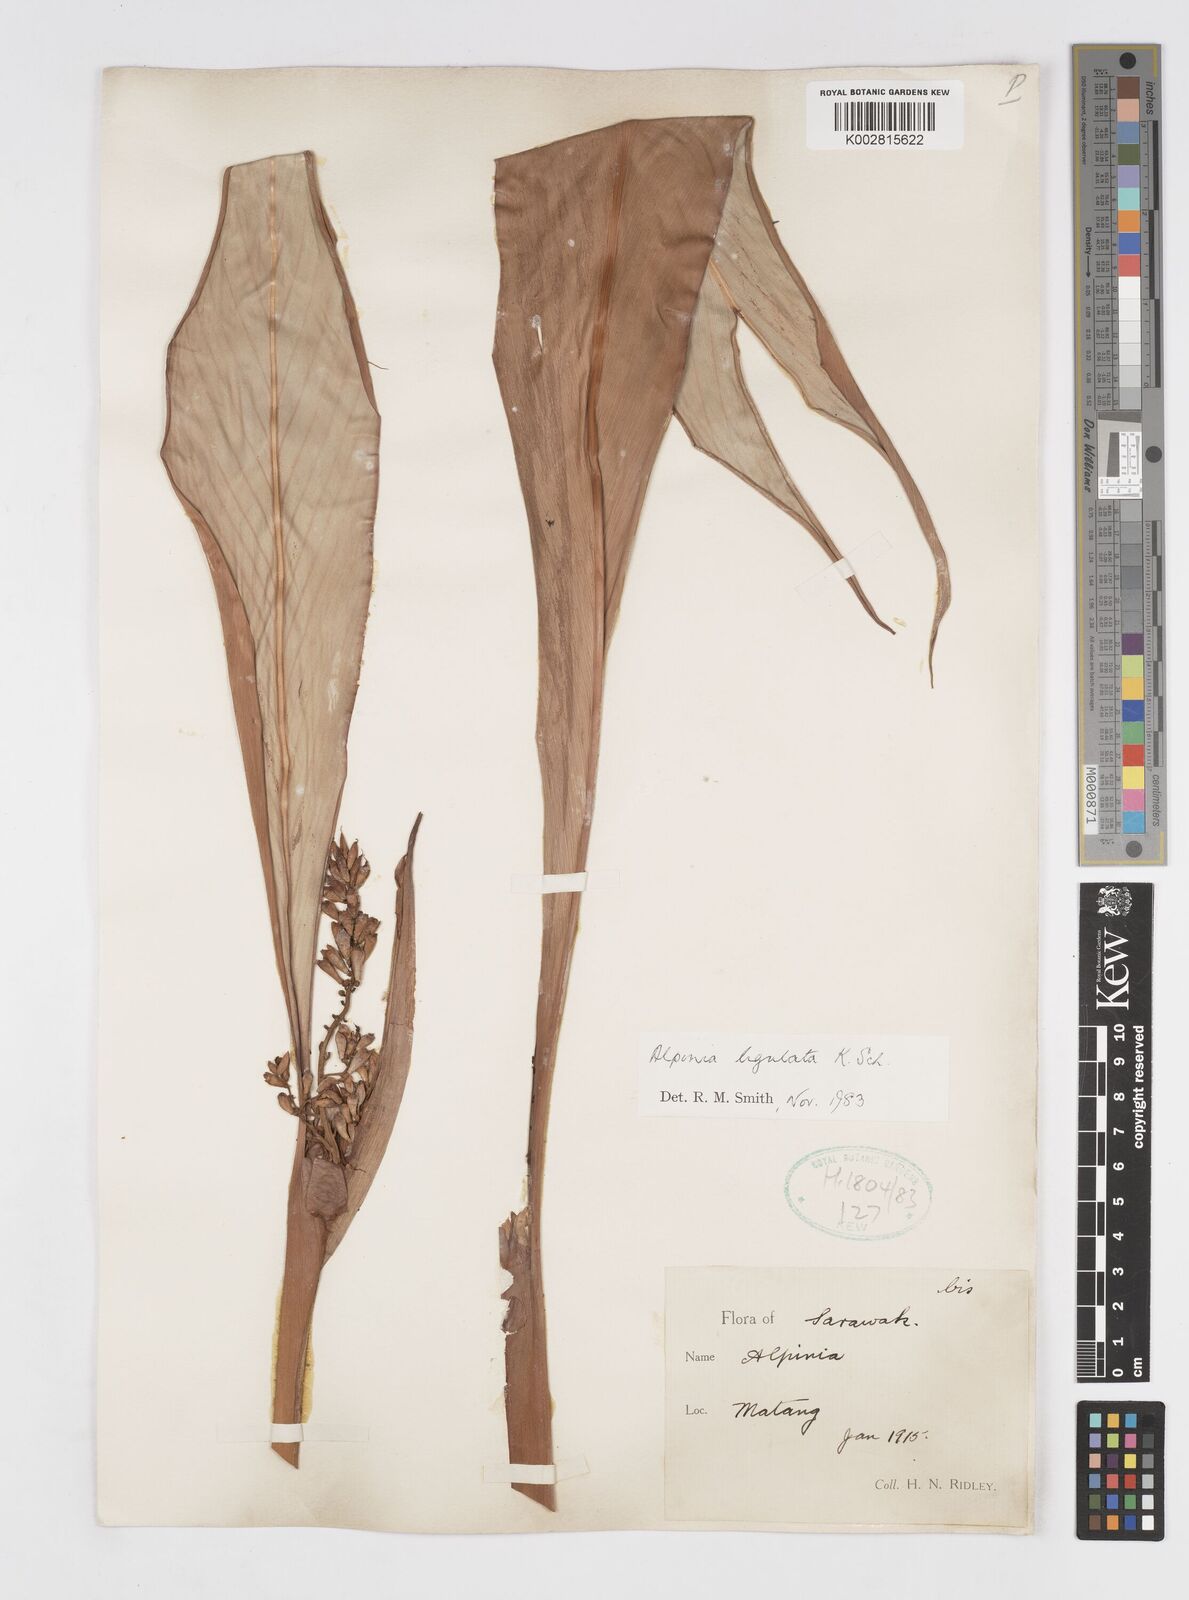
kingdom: Plantae
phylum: Tracheophyta
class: Liliopsida
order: Zingiberales
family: Zingiberaceae
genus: Alpinia
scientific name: Alpinia ligulata
